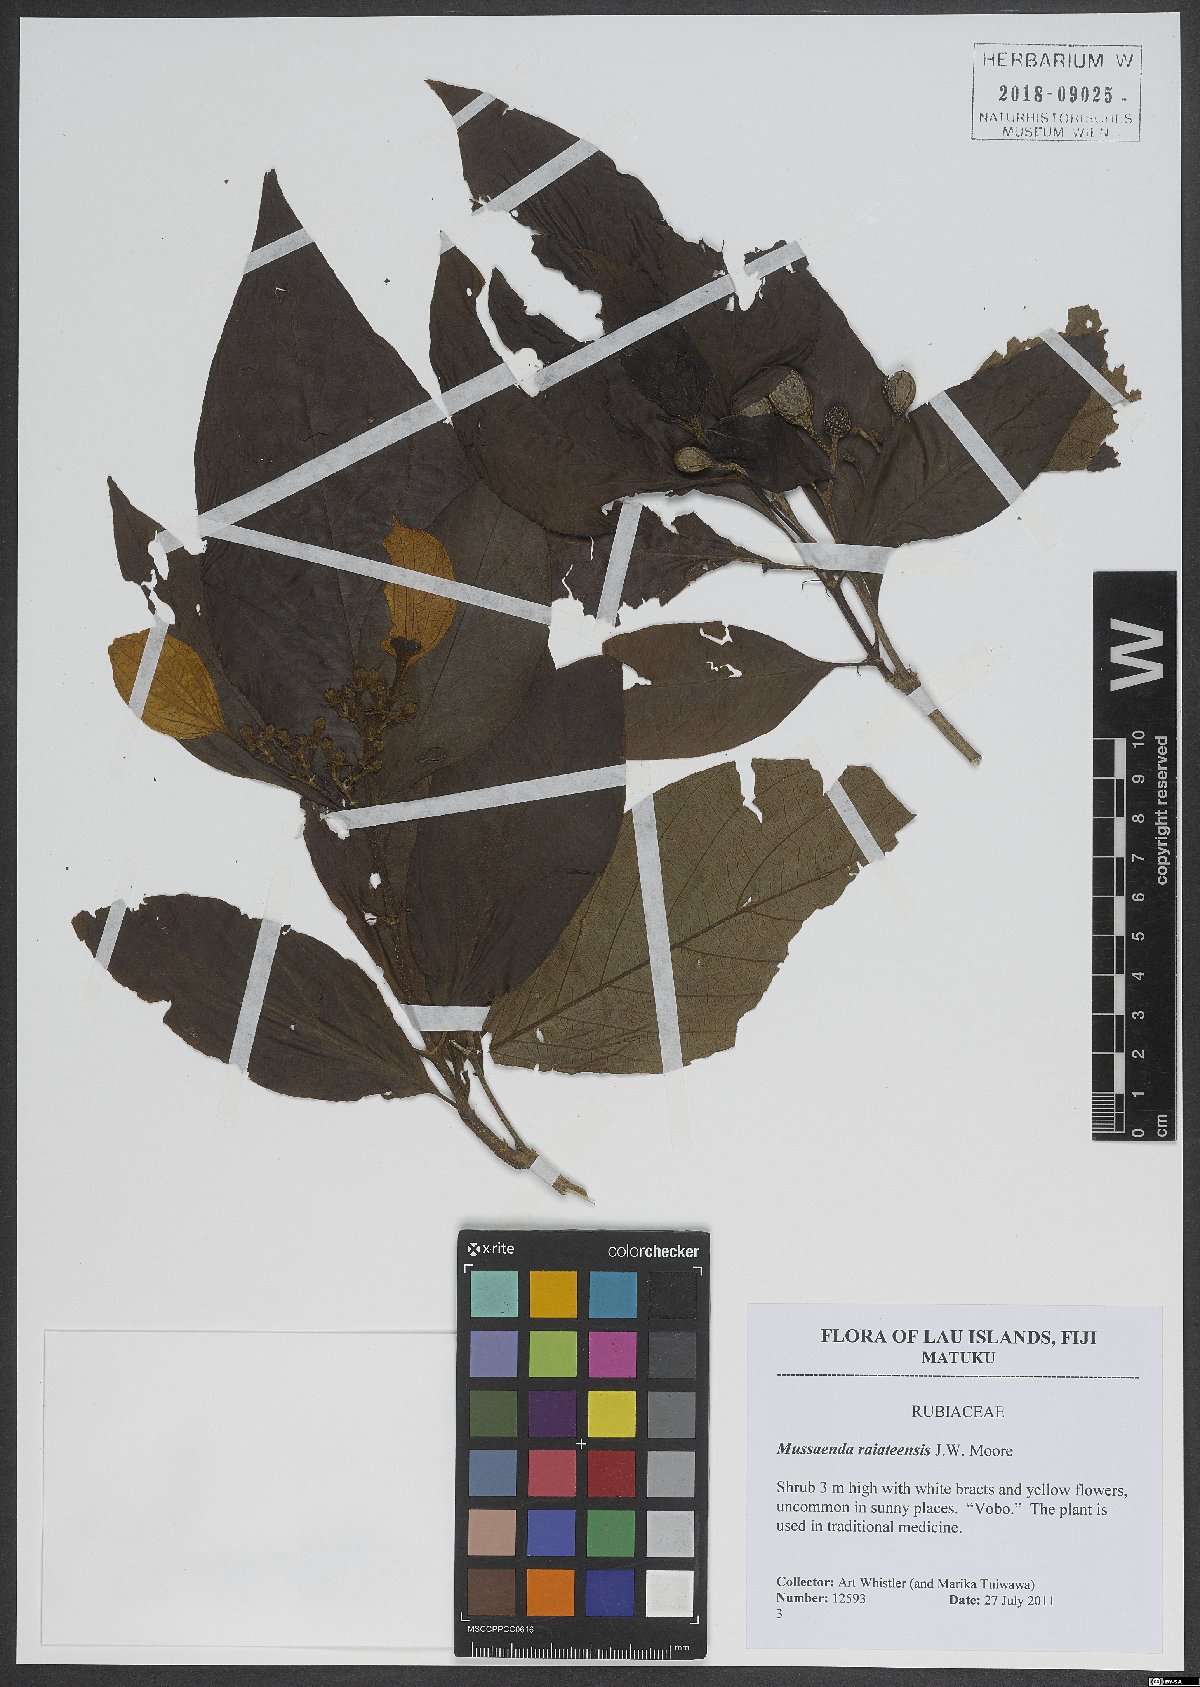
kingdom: Plantae
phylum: Tracheophyta
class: Magnoliopsida
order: Gentianales
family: Rubiaceae
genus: Mussaenda
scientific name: Mussaenda raiateensis
